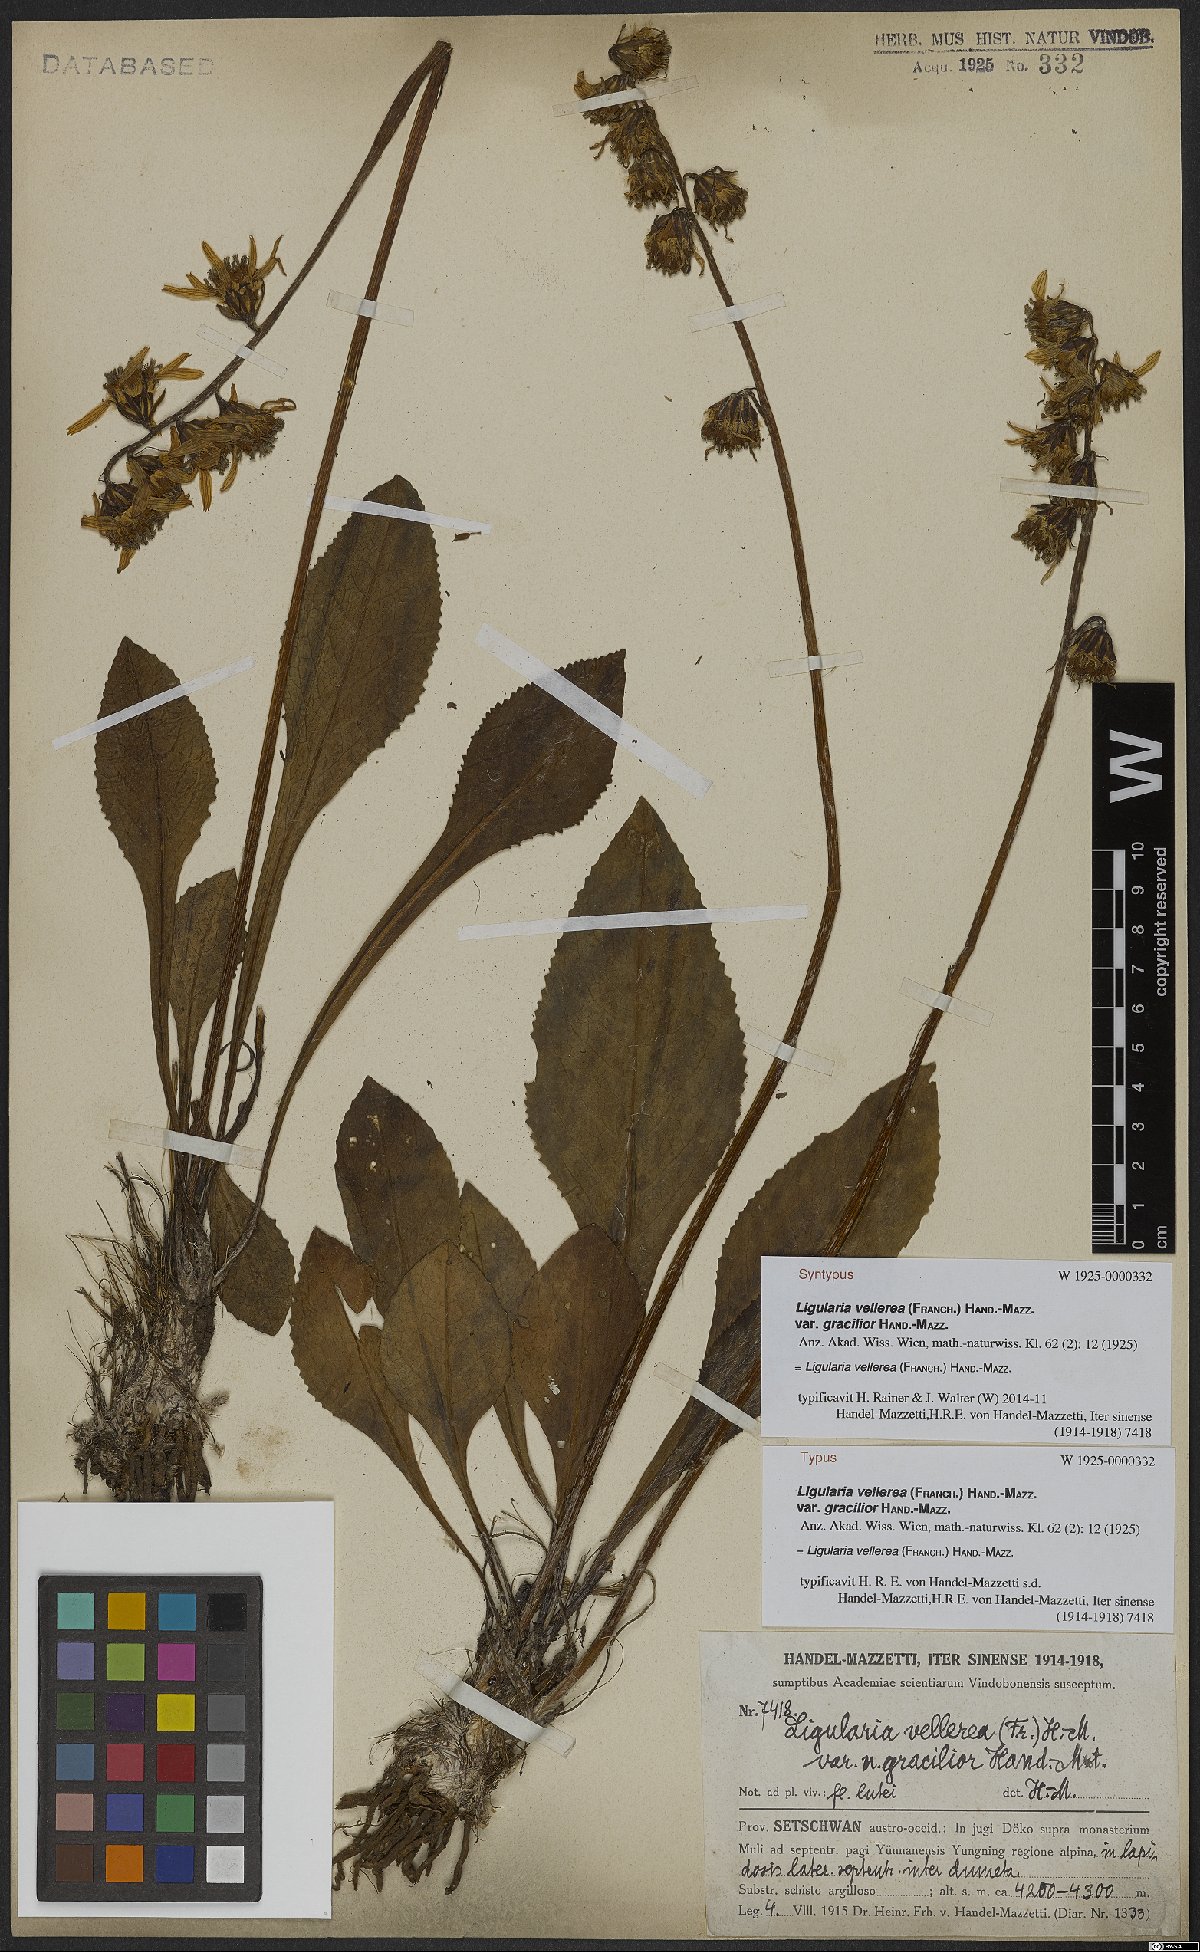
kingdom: Plantae
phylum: Tracheophyta
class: Magnoliopsida
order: Asterales
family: Asteraceae
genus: Ligularia
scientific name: Ligularia vellerea
